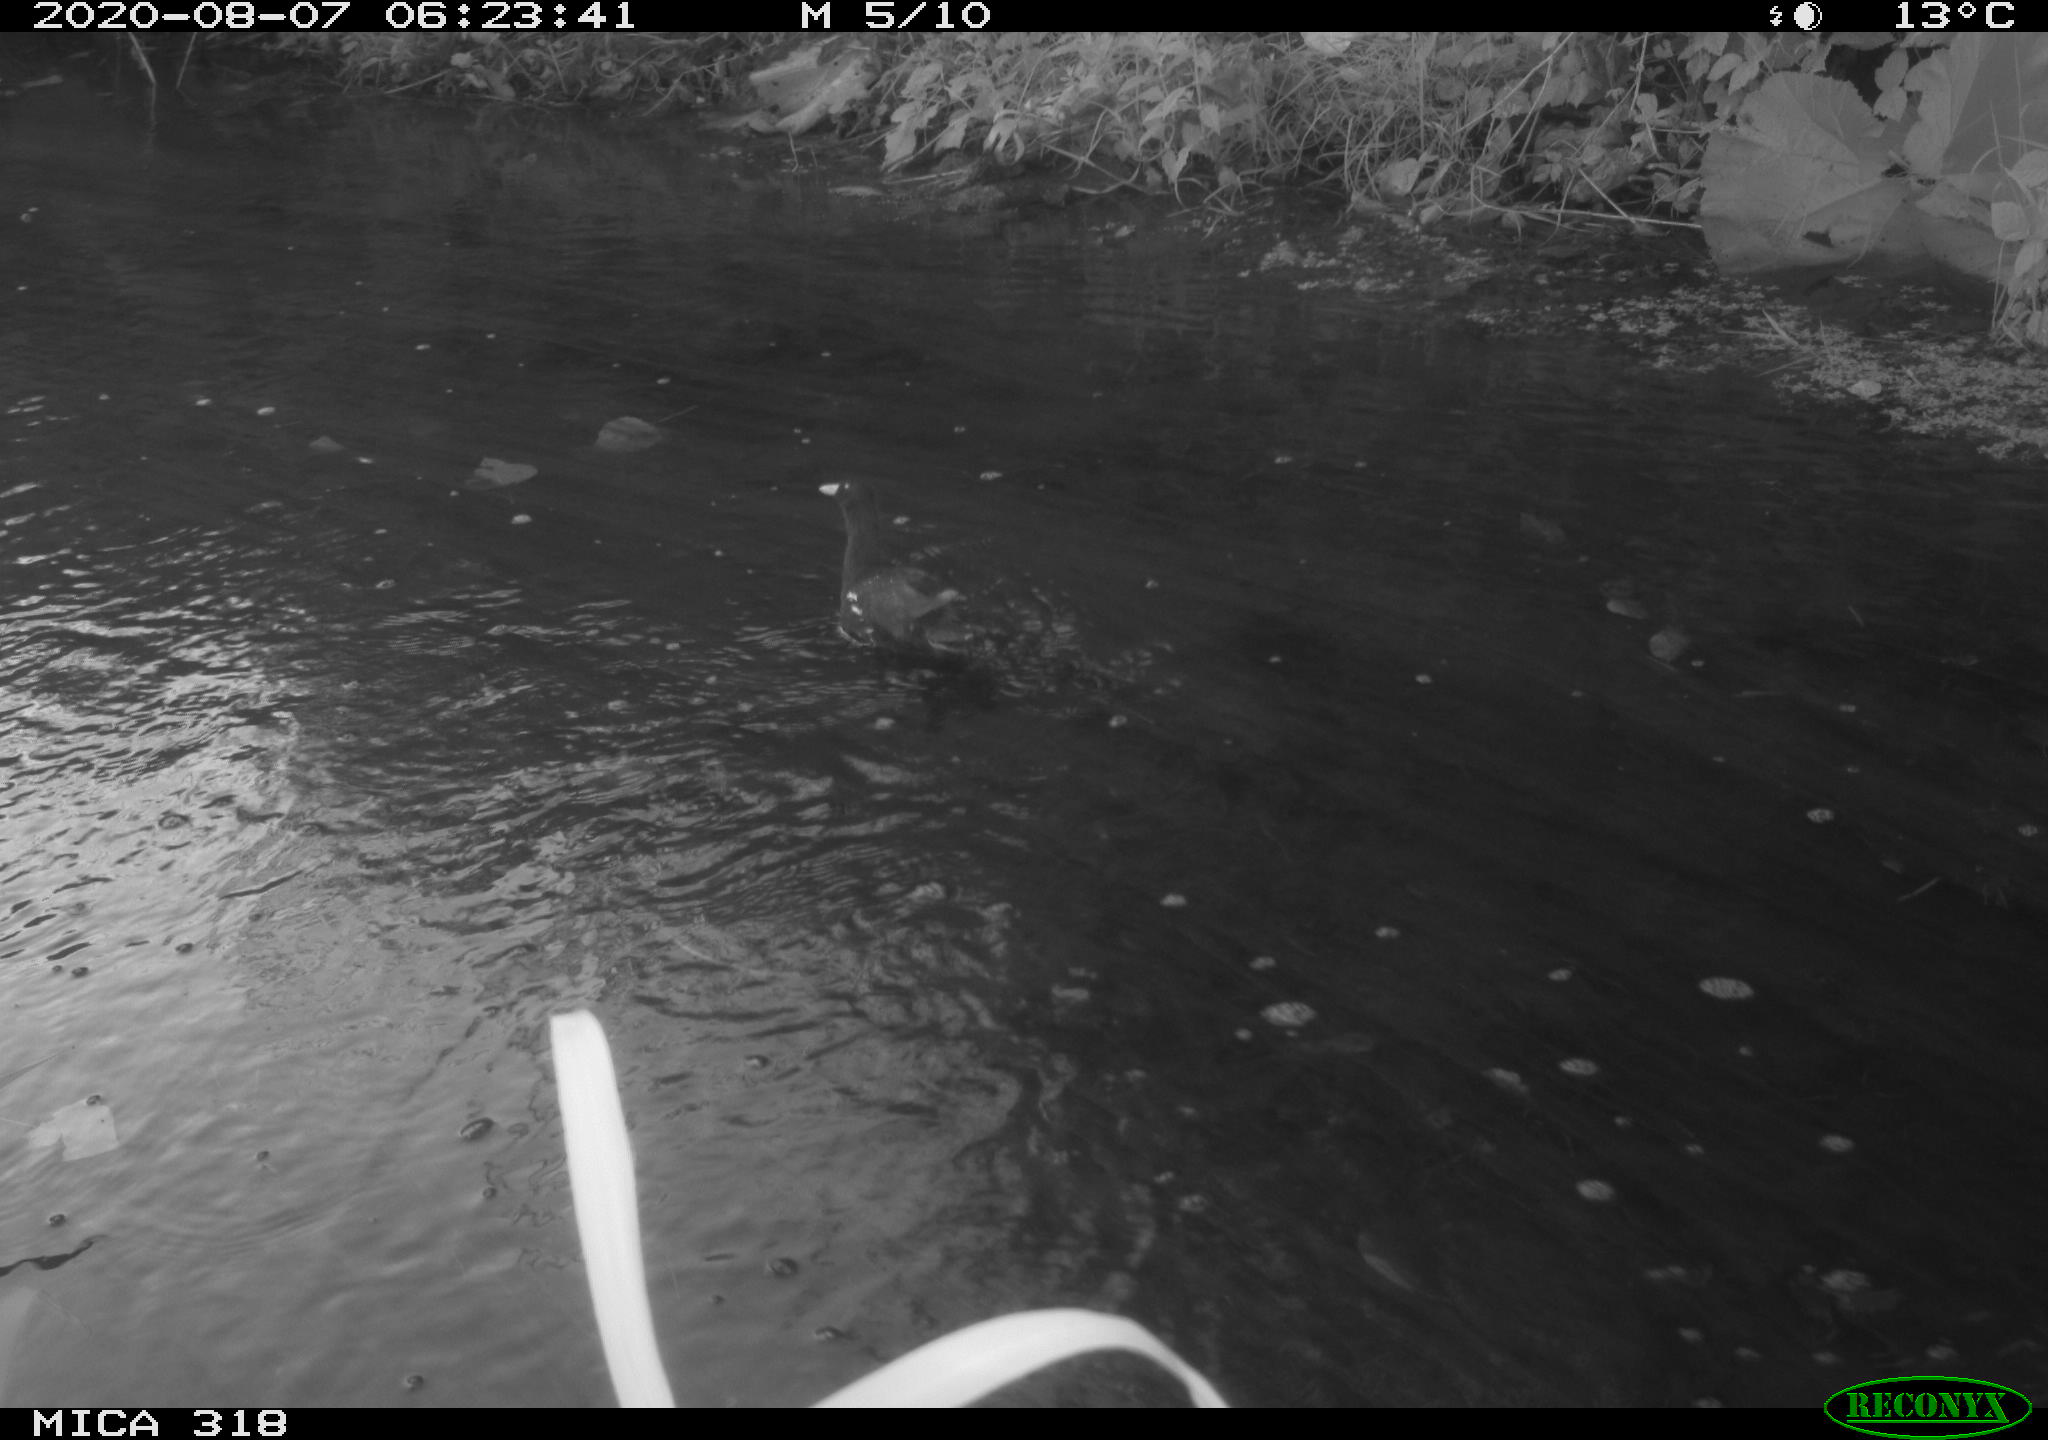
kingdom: Animalia
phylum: Chordata
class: Aves
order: Gruiformes
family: Rallidae
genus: Gallinula
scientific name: Gallinula chloropus
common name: Common moorhen
